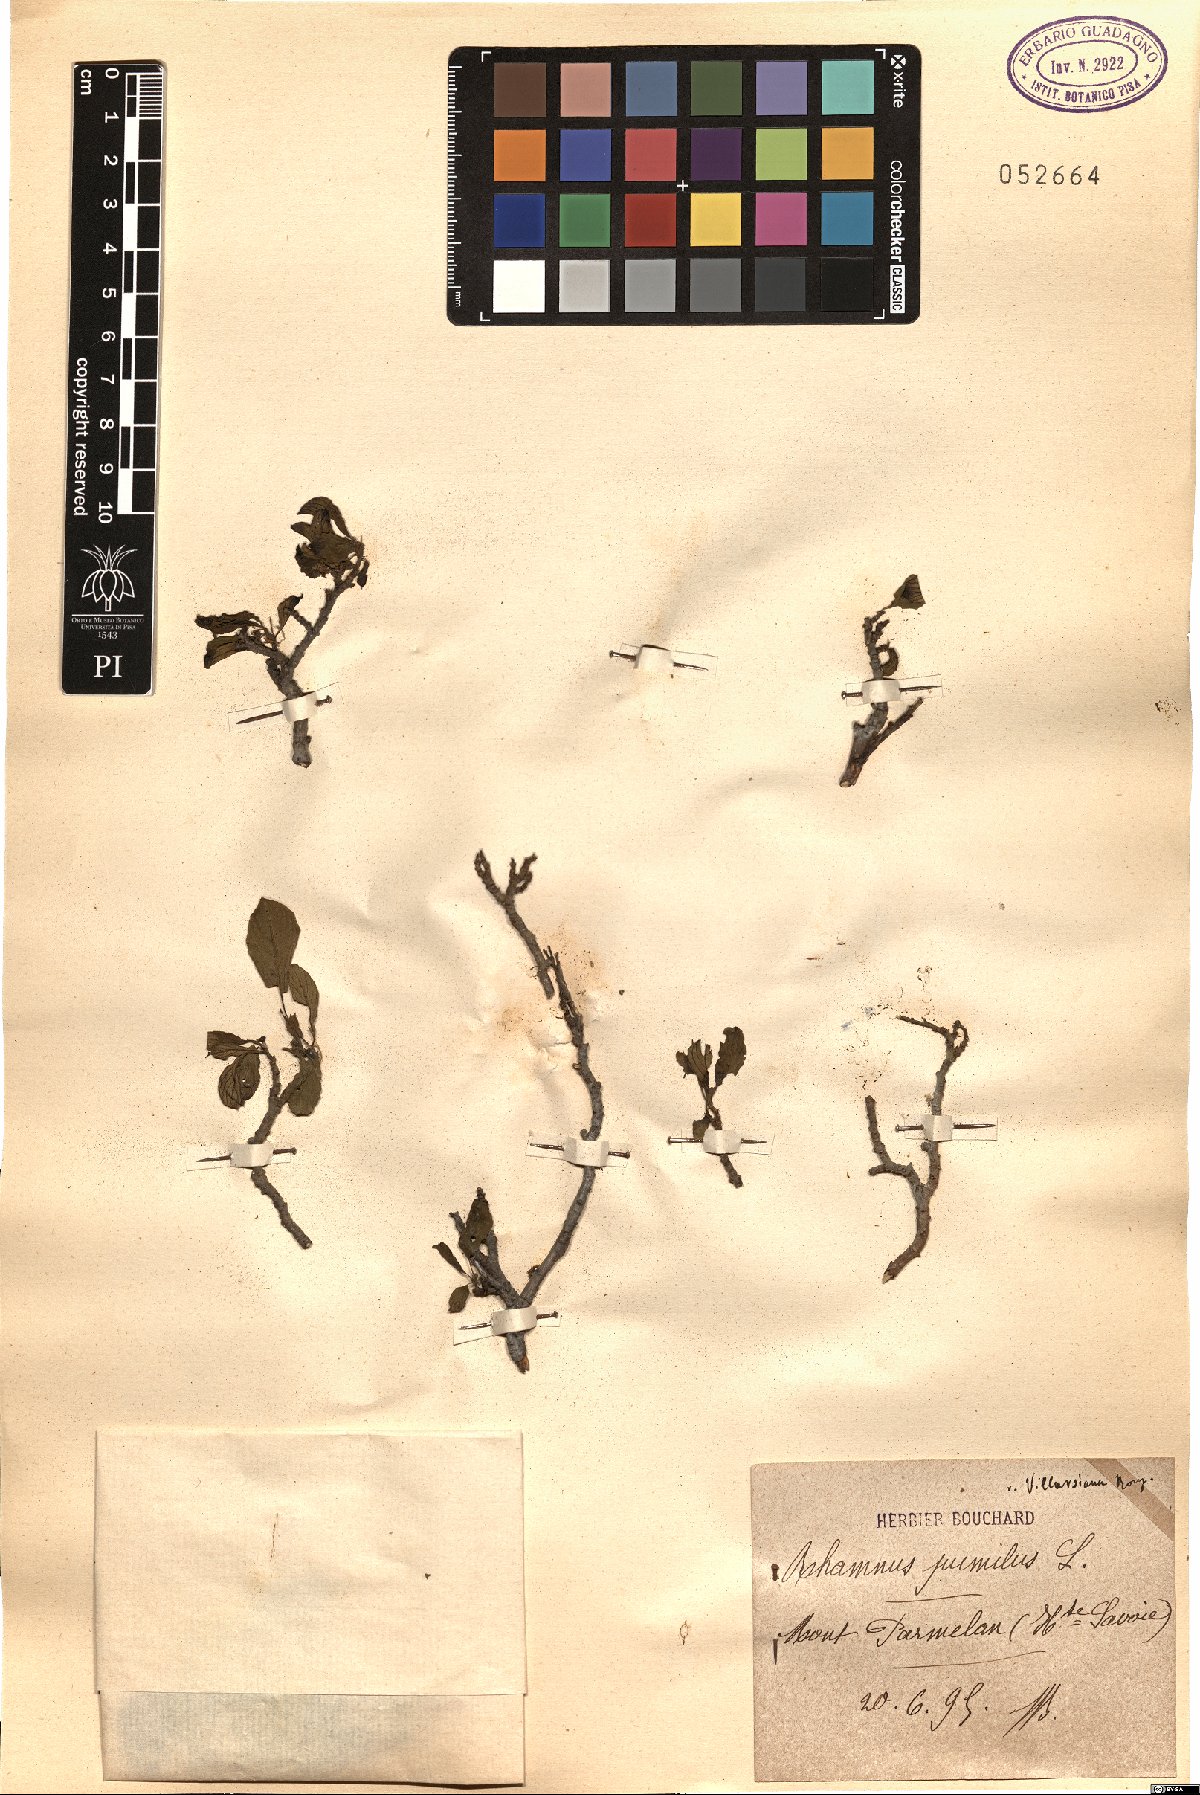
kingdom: Plantae
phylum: Tracheophyta
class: Magnoliopsida
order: Rosales
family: Rhamnaceae
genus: Atadinus
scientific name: Atadinus pumilus
